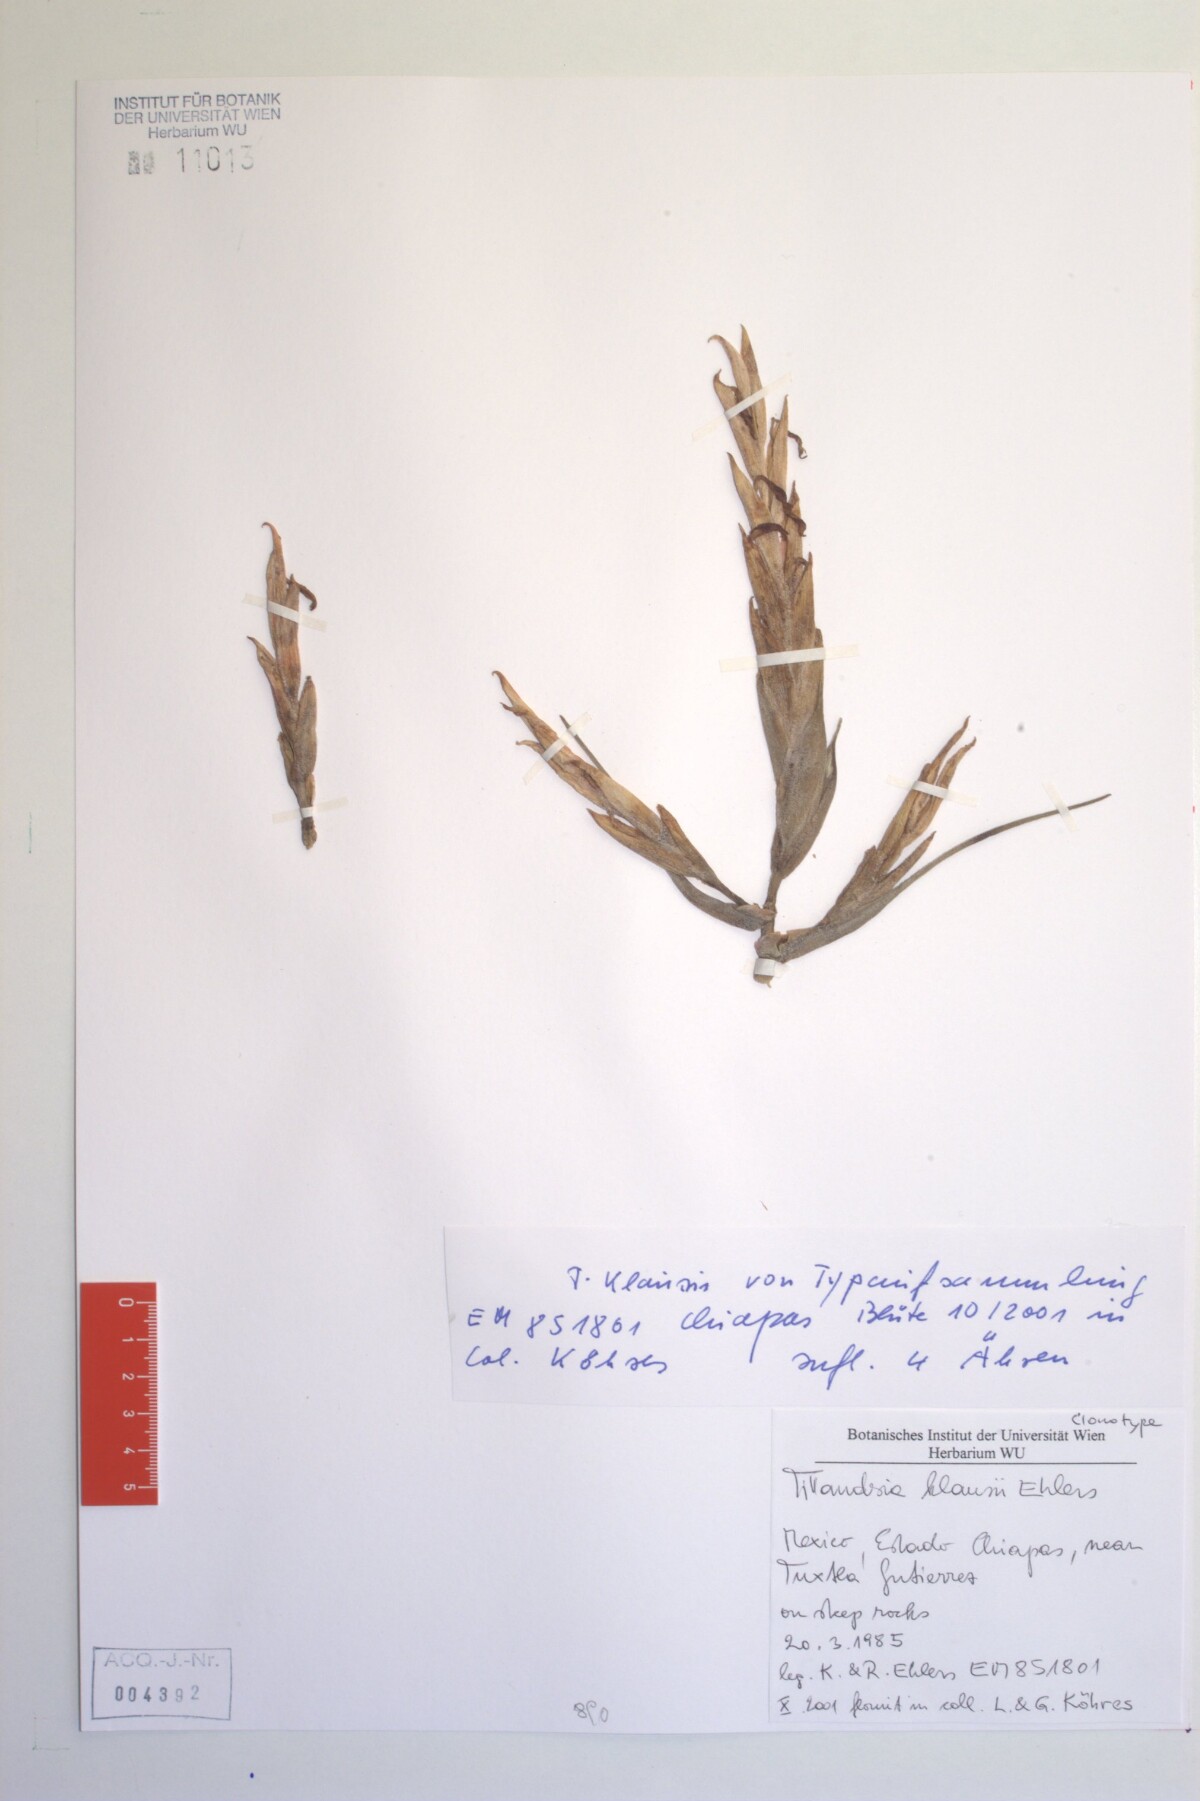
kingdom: Plantae
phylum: Tracheophyta
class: Liliopsida
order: Poales
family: Bromeliaceae
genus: Tillandsia
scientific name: Tillandsia klausii
